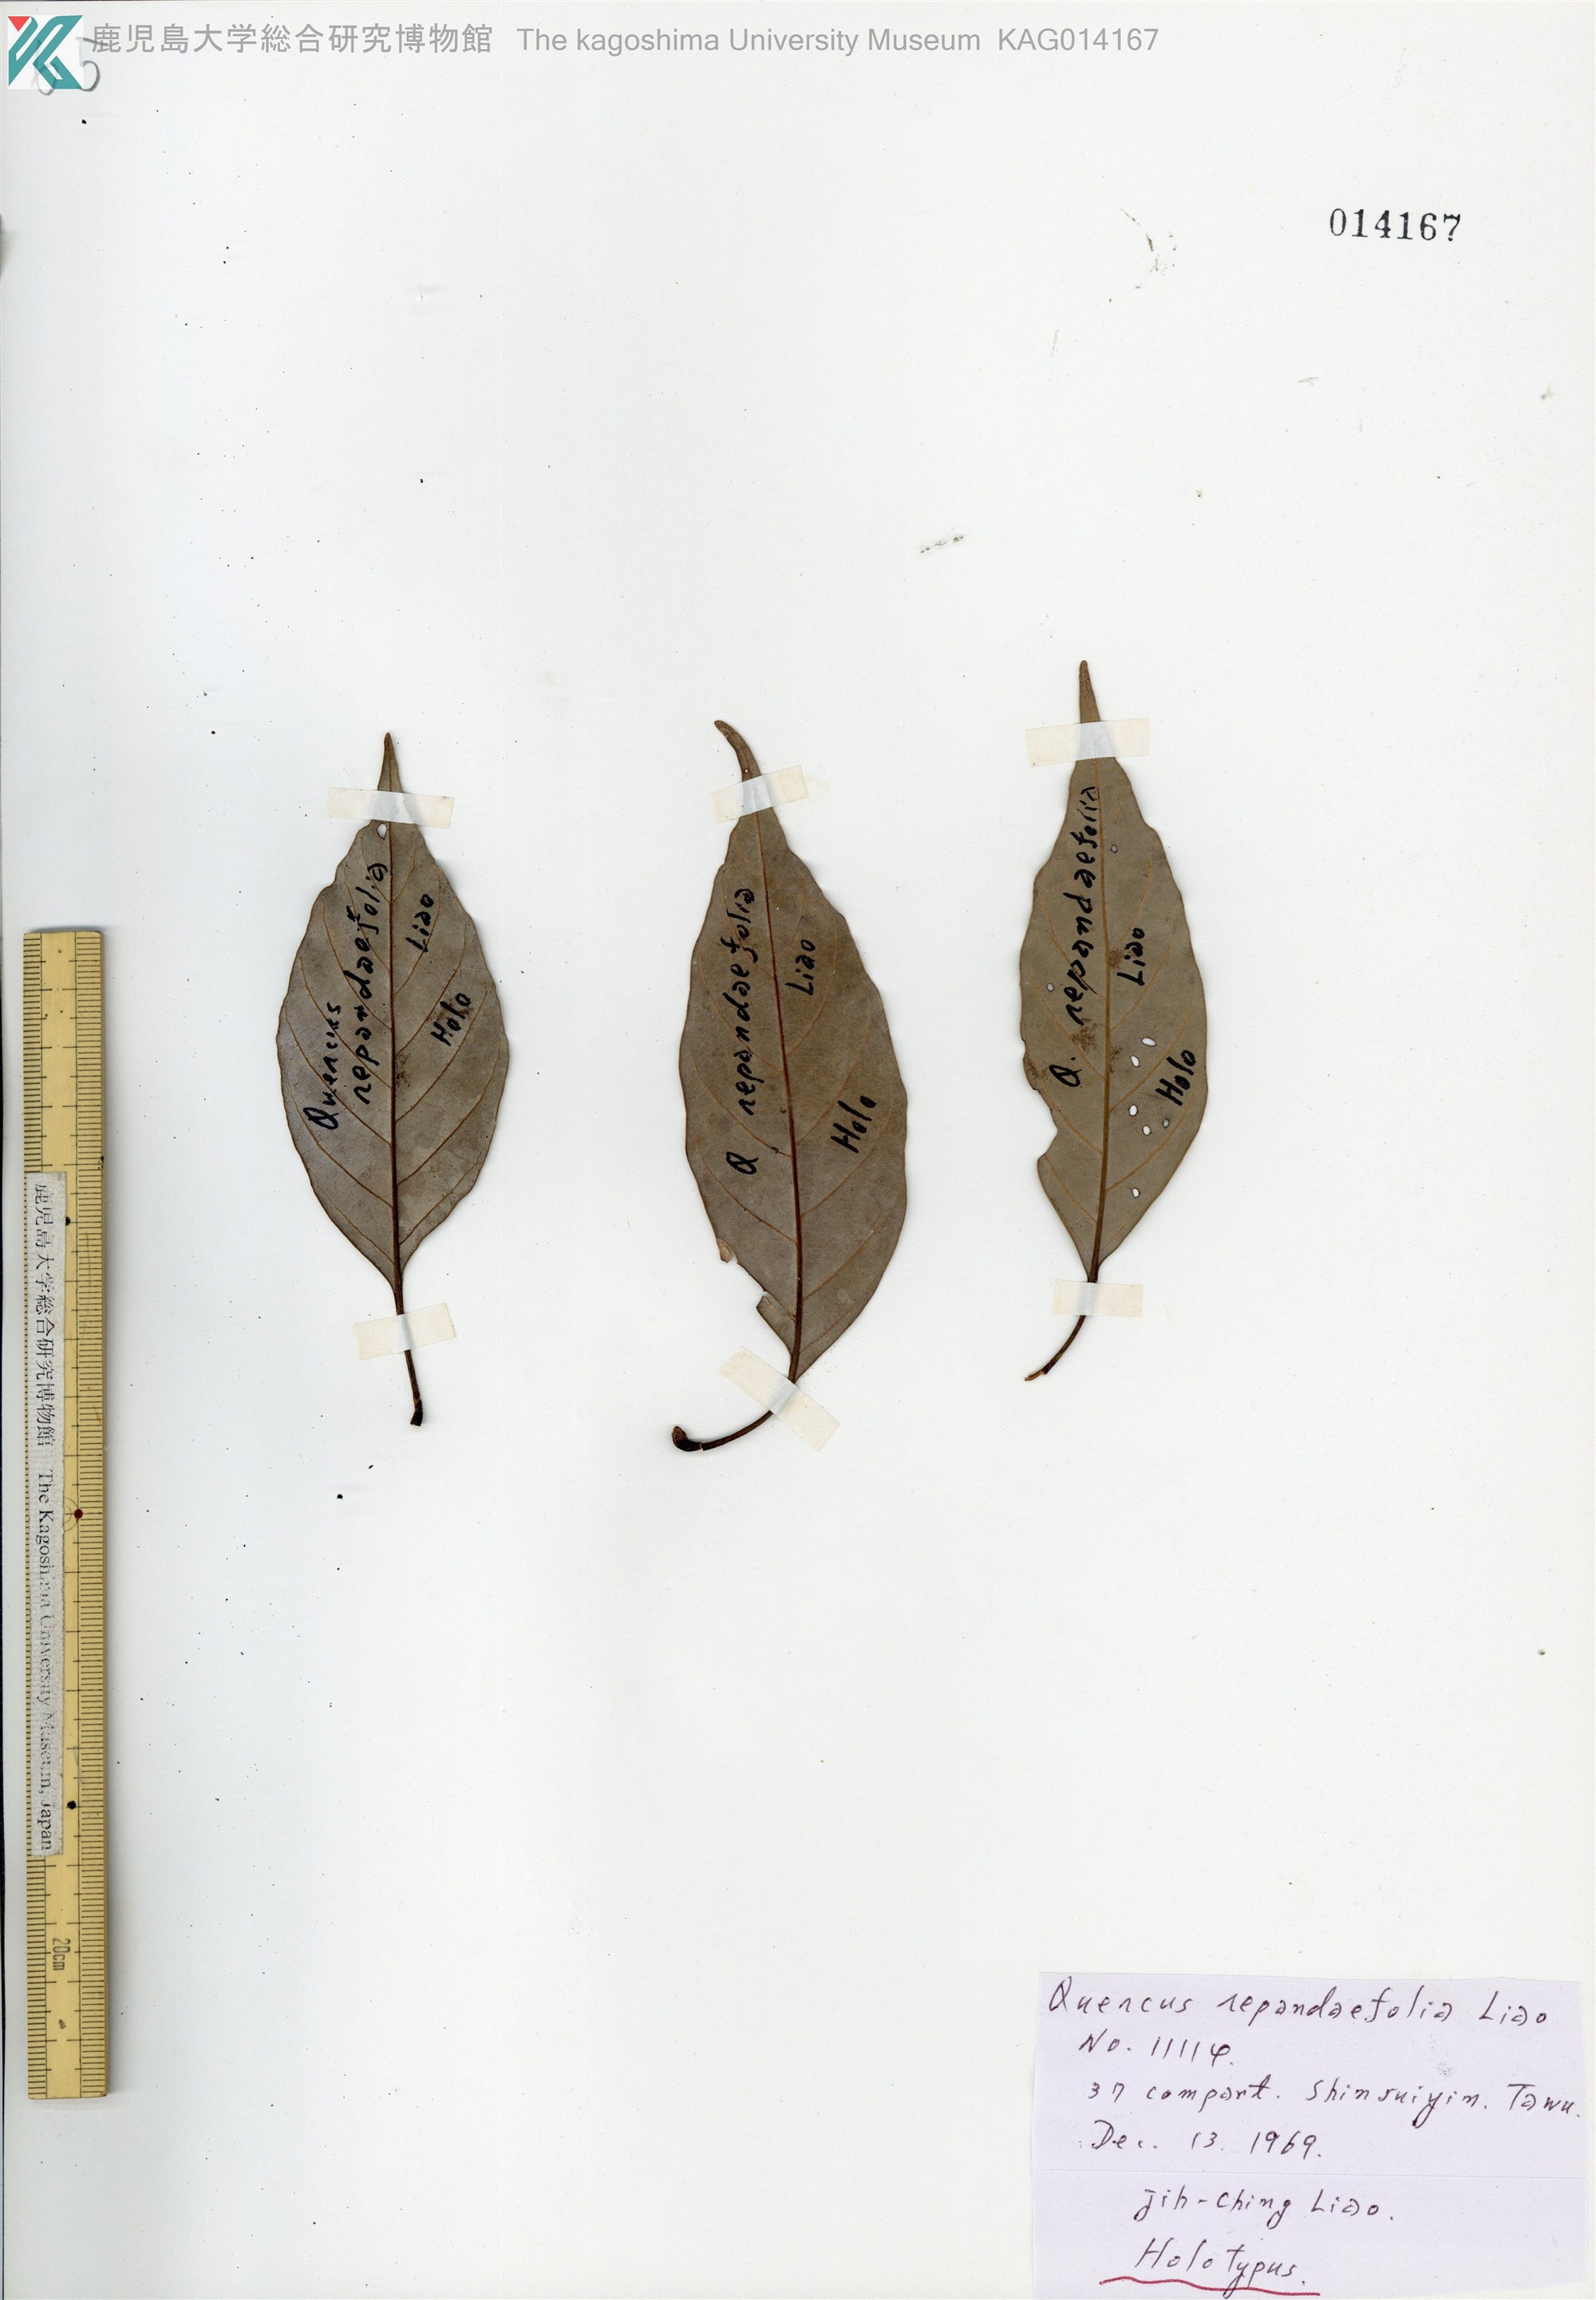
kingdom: Plantae
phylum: Tracheophyta
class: Magnoliopsida
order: Fagales
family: Fagaceae
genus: Quercus
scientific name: Quercus glauca
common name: Ring-cup oak
